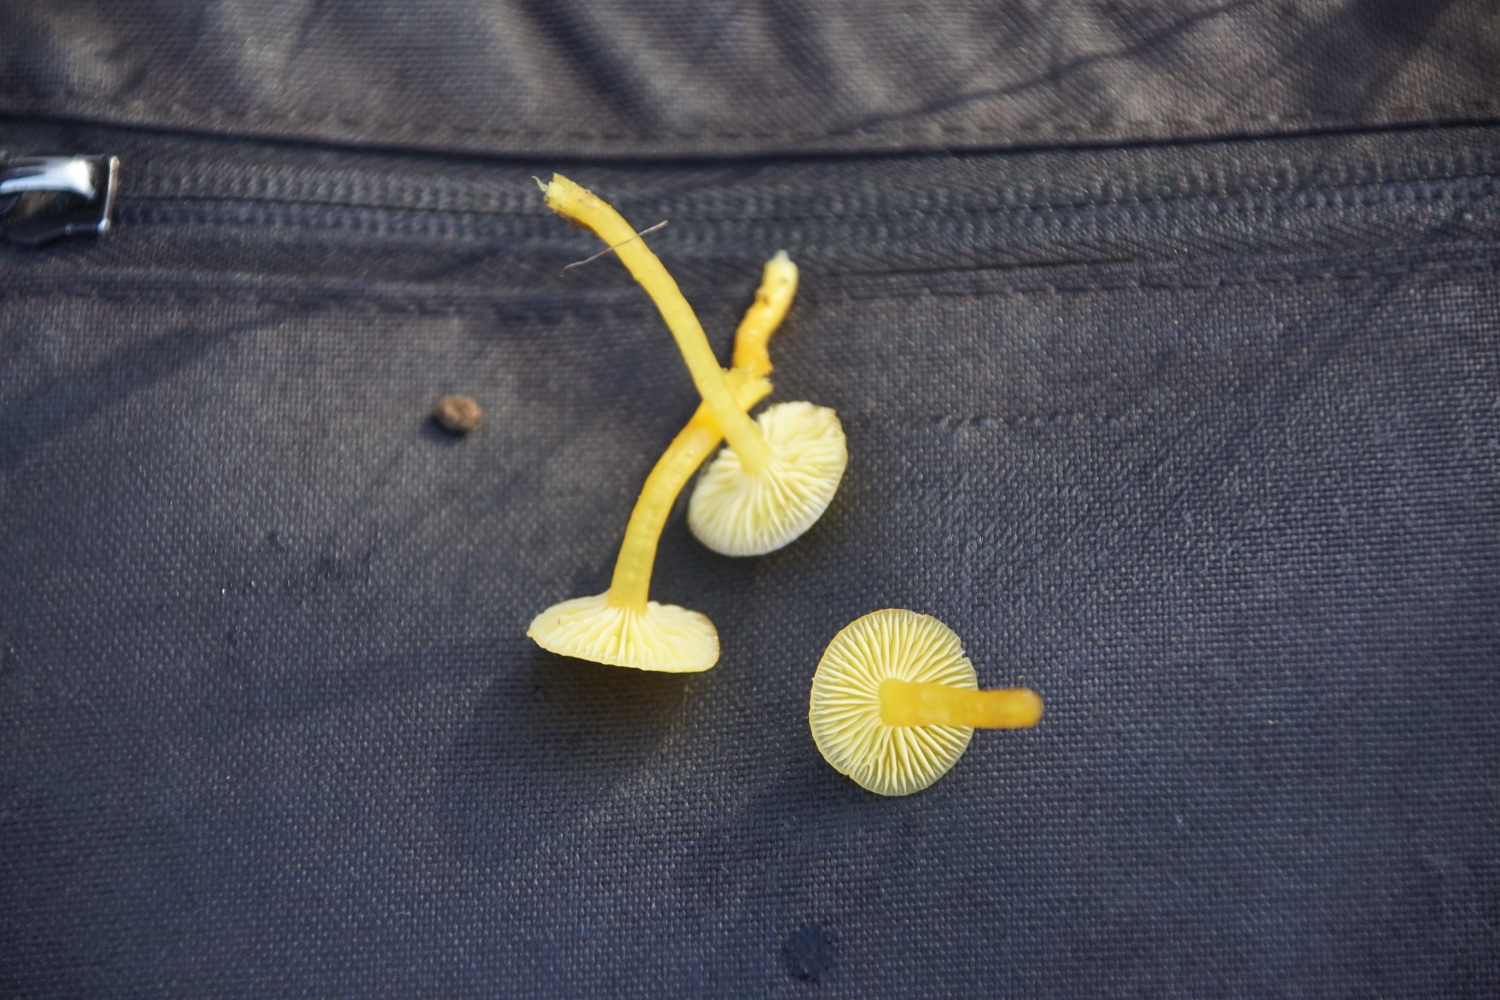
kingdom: Fungi
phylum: Basidiomycota
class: Agaricomycetes
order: Agaricales
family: Hygrophoraceae
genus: Hygrocybe
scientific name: Hygrocybe ceracea
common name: voksgul vokshat
